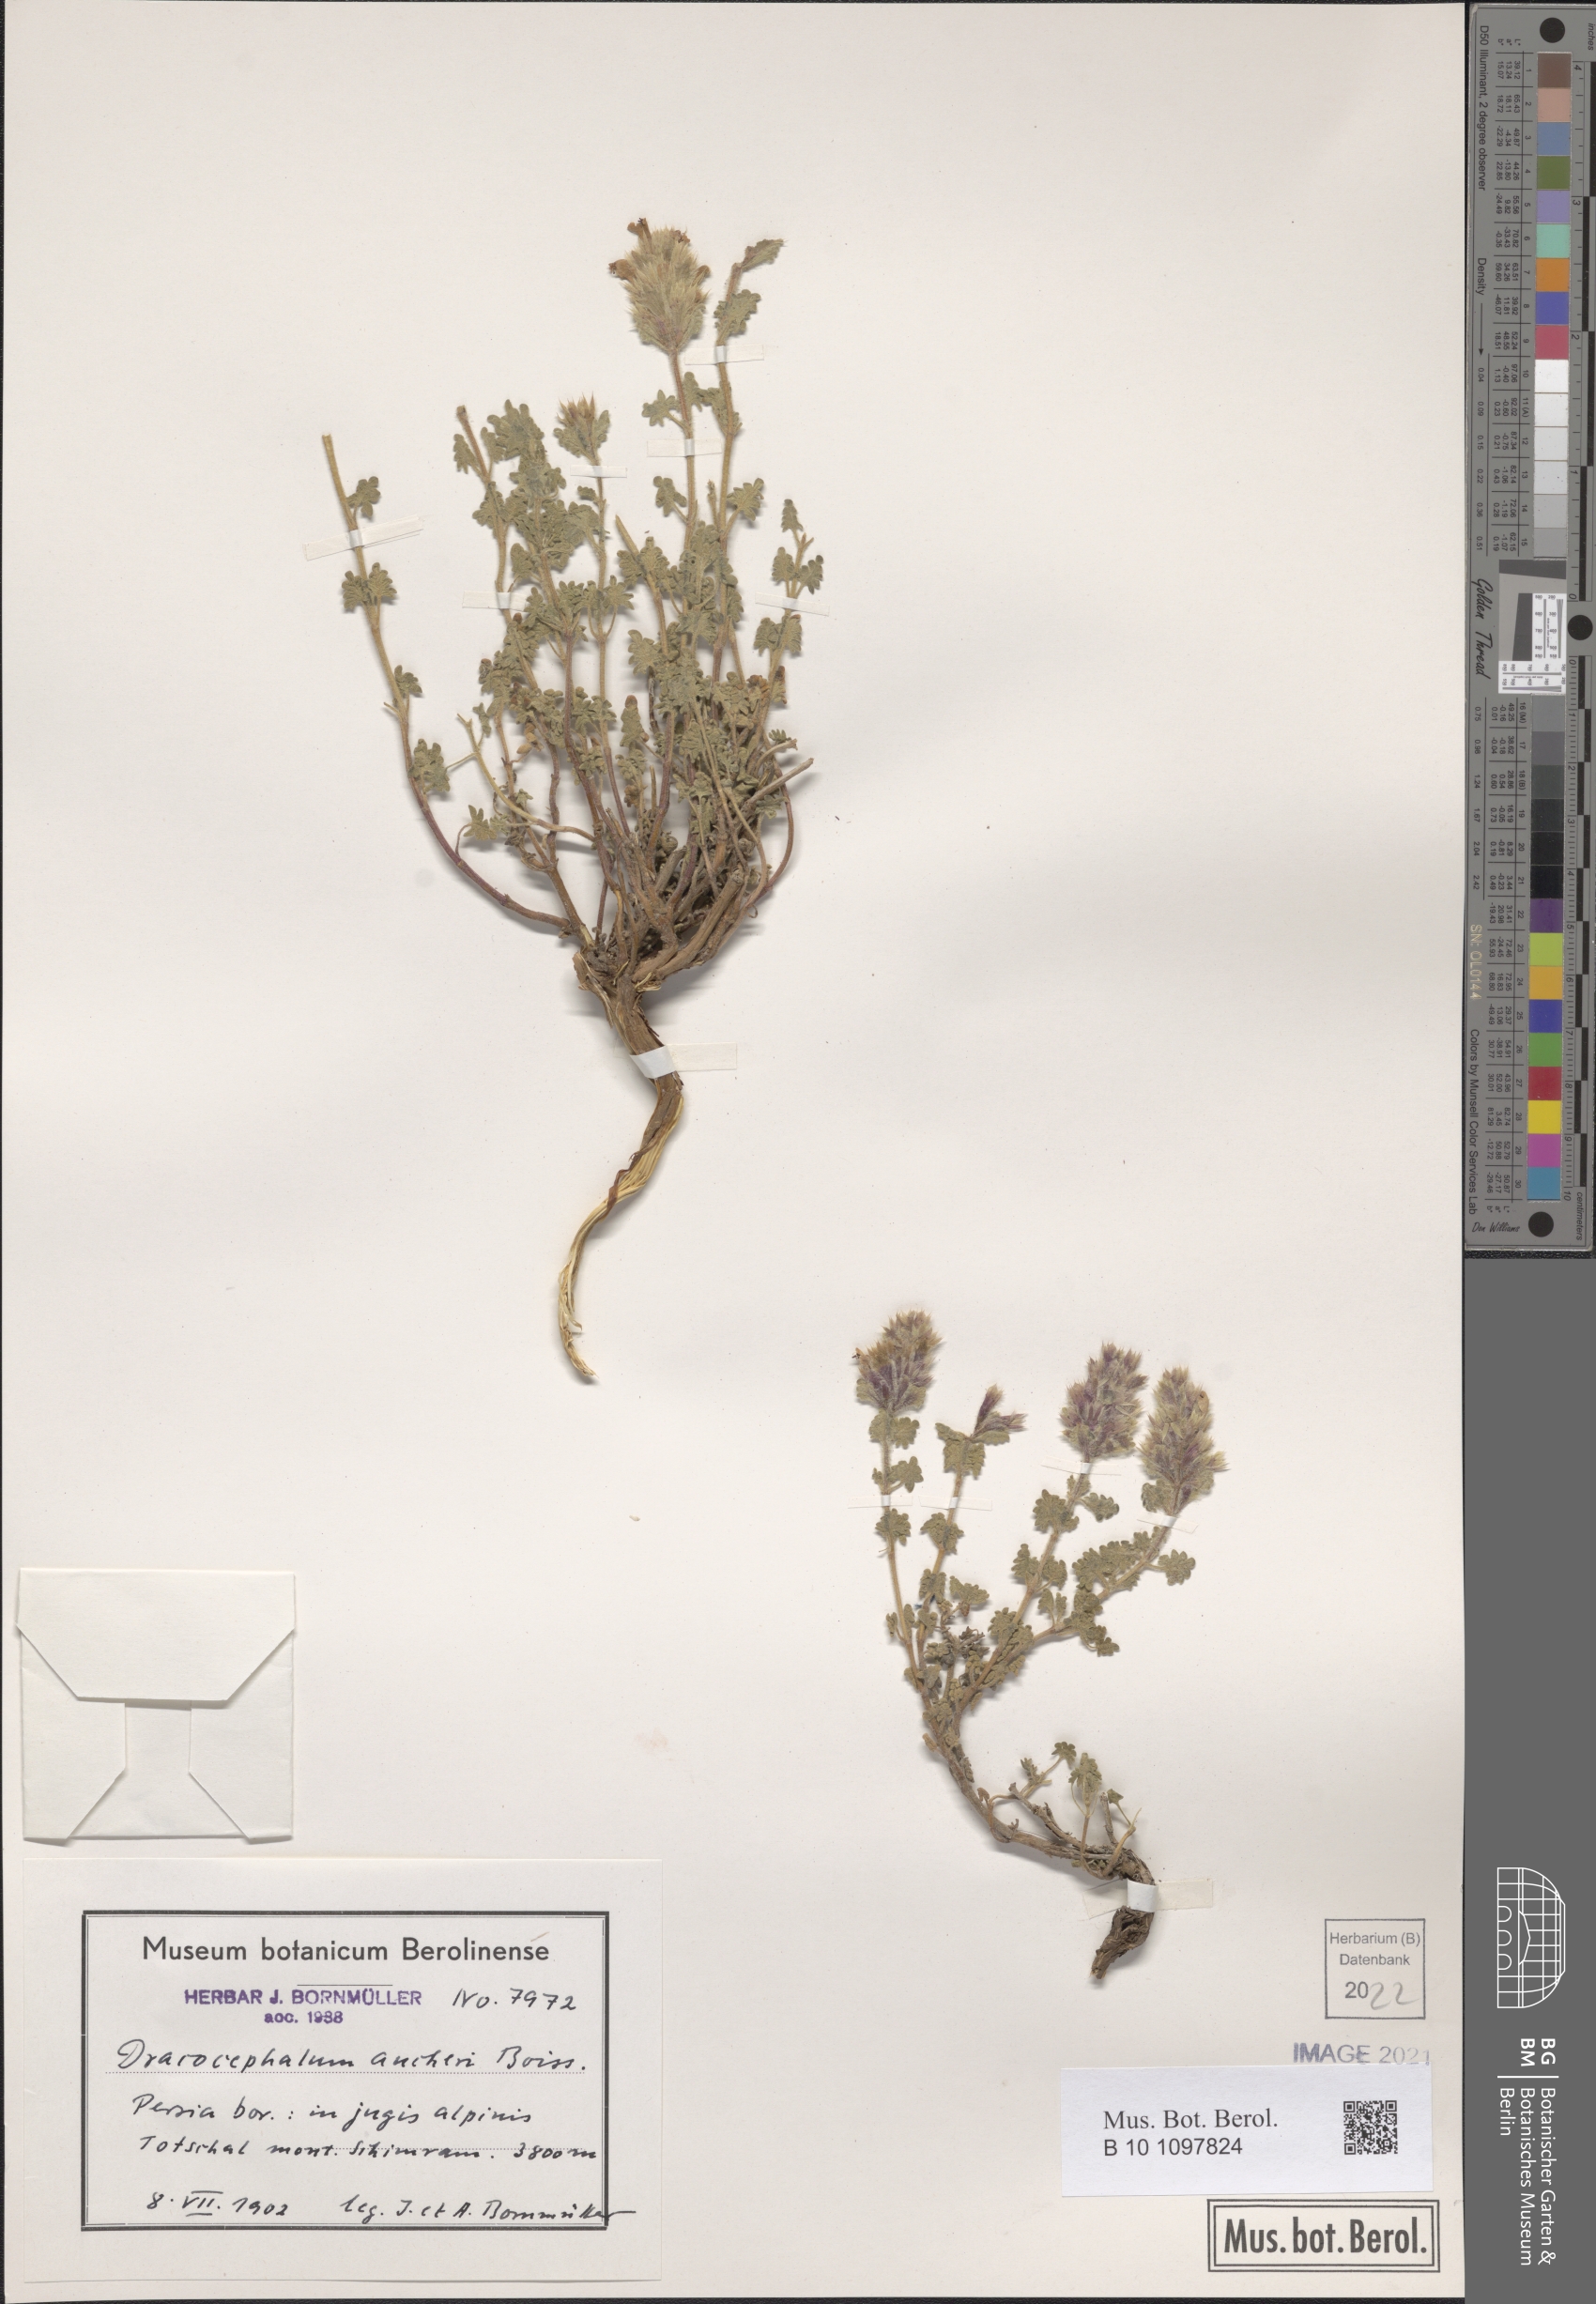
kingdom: Plantae
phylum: Tracheophyta
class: Magnoliopsida
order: Lamiales
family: Lamiaceae
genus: Dracocephalum
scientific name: Dracocephalum aucheri
